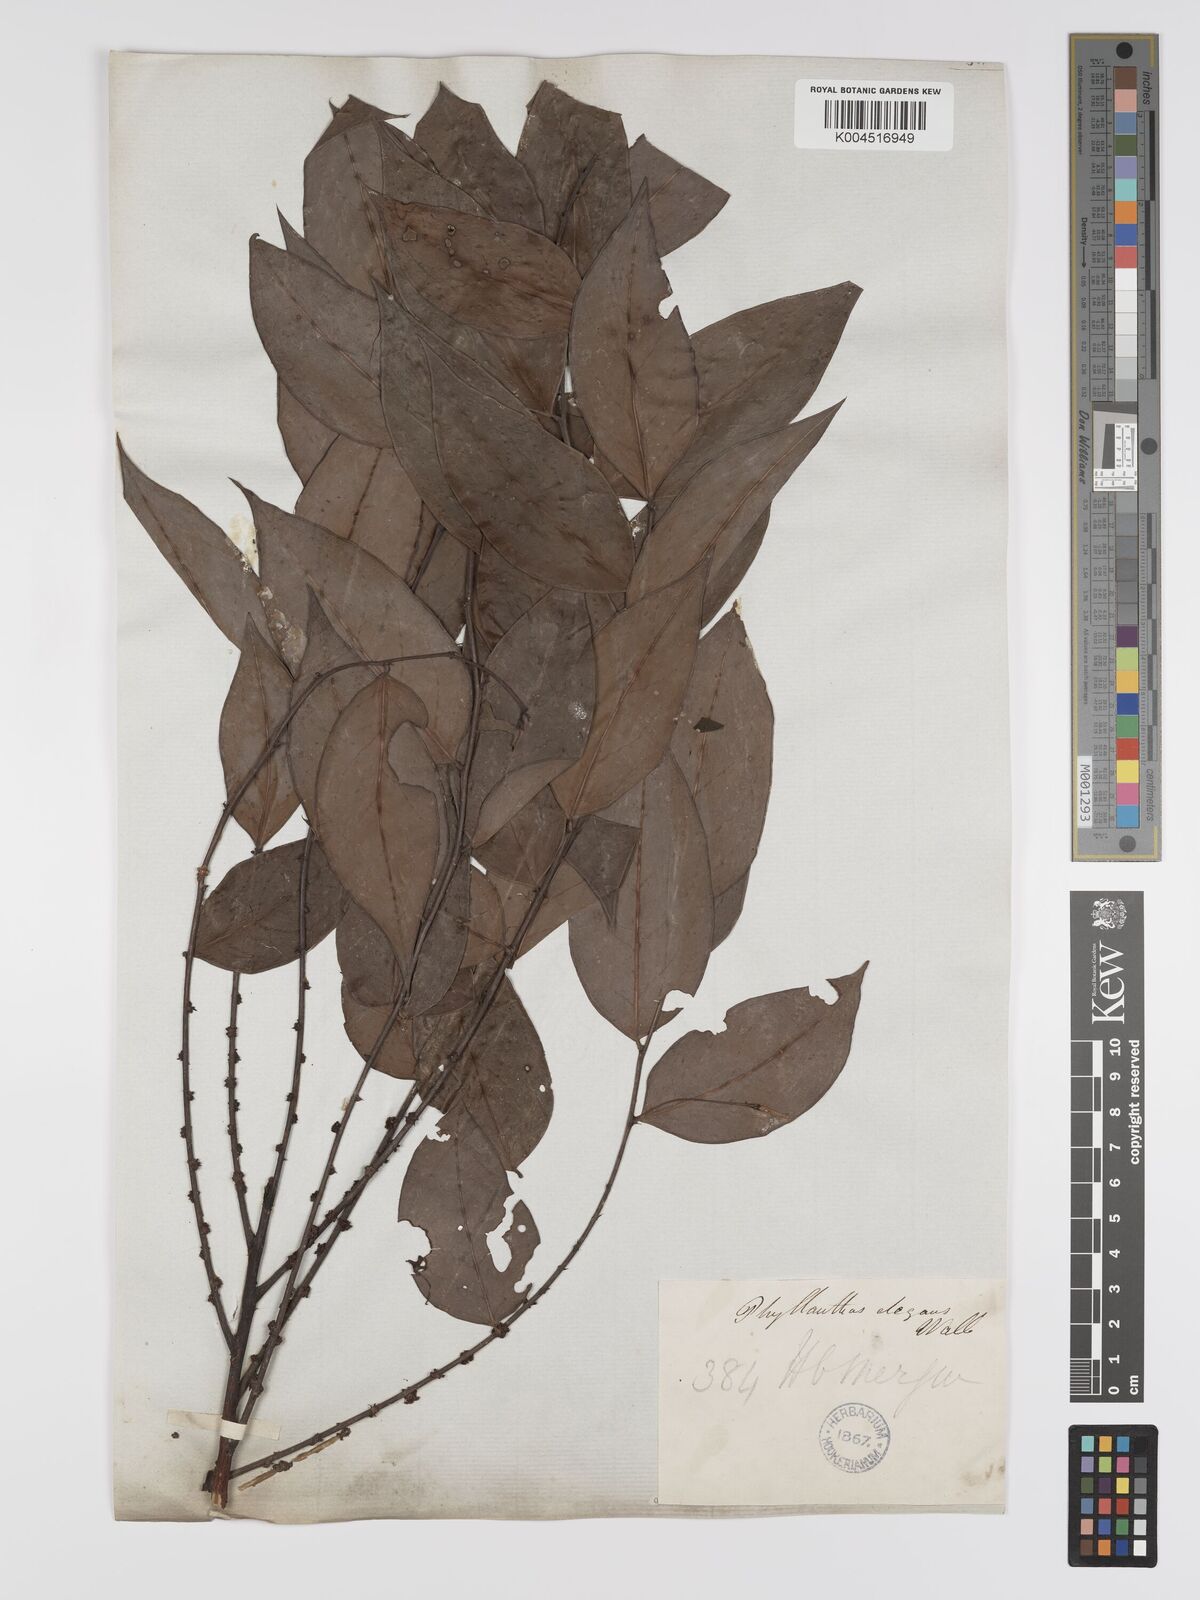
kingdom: Plantae
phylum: Tracheophyta
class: Magnoliopsida
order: Malpighiales
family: Phyllanthaceae
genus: Phyllanthus
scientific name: Phyllanthus elegans
